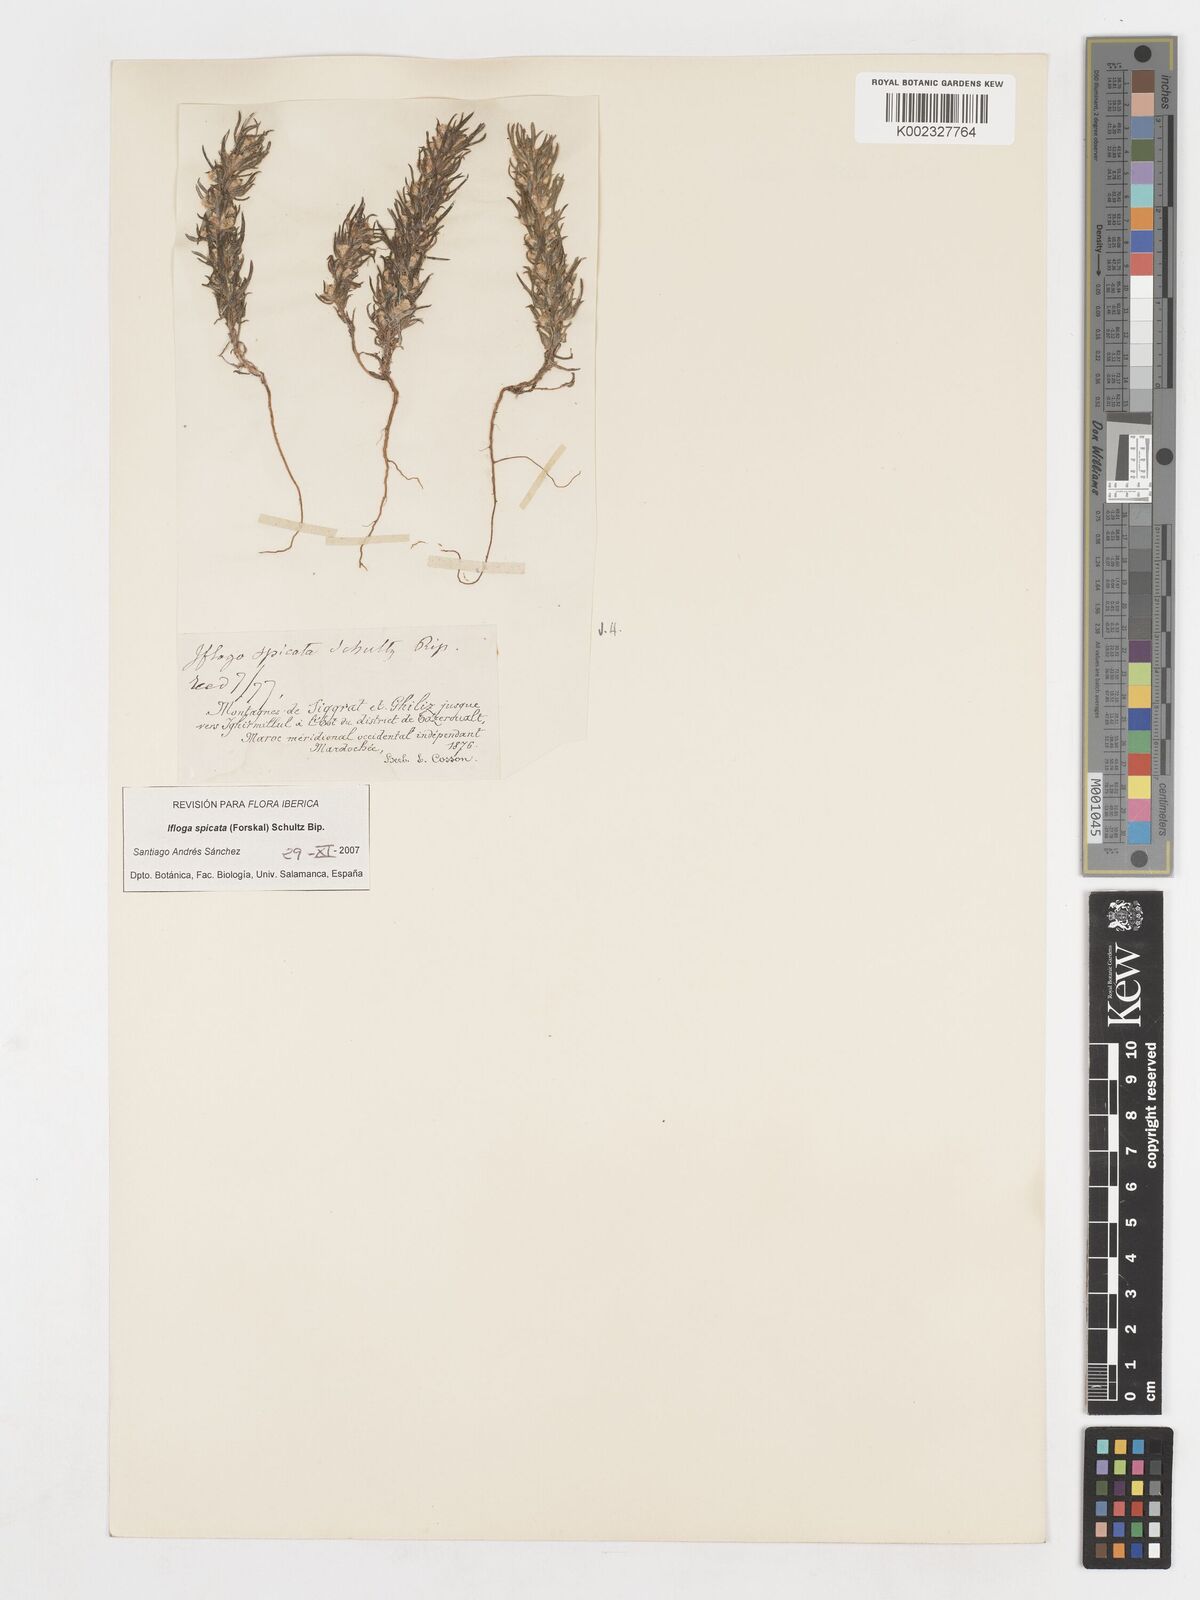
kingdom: Plantae
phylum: Tracheophyta
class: Magnoliopsida
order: Asterales
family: Asteraceae
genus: Ifloga
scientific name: Ifloga spicata
